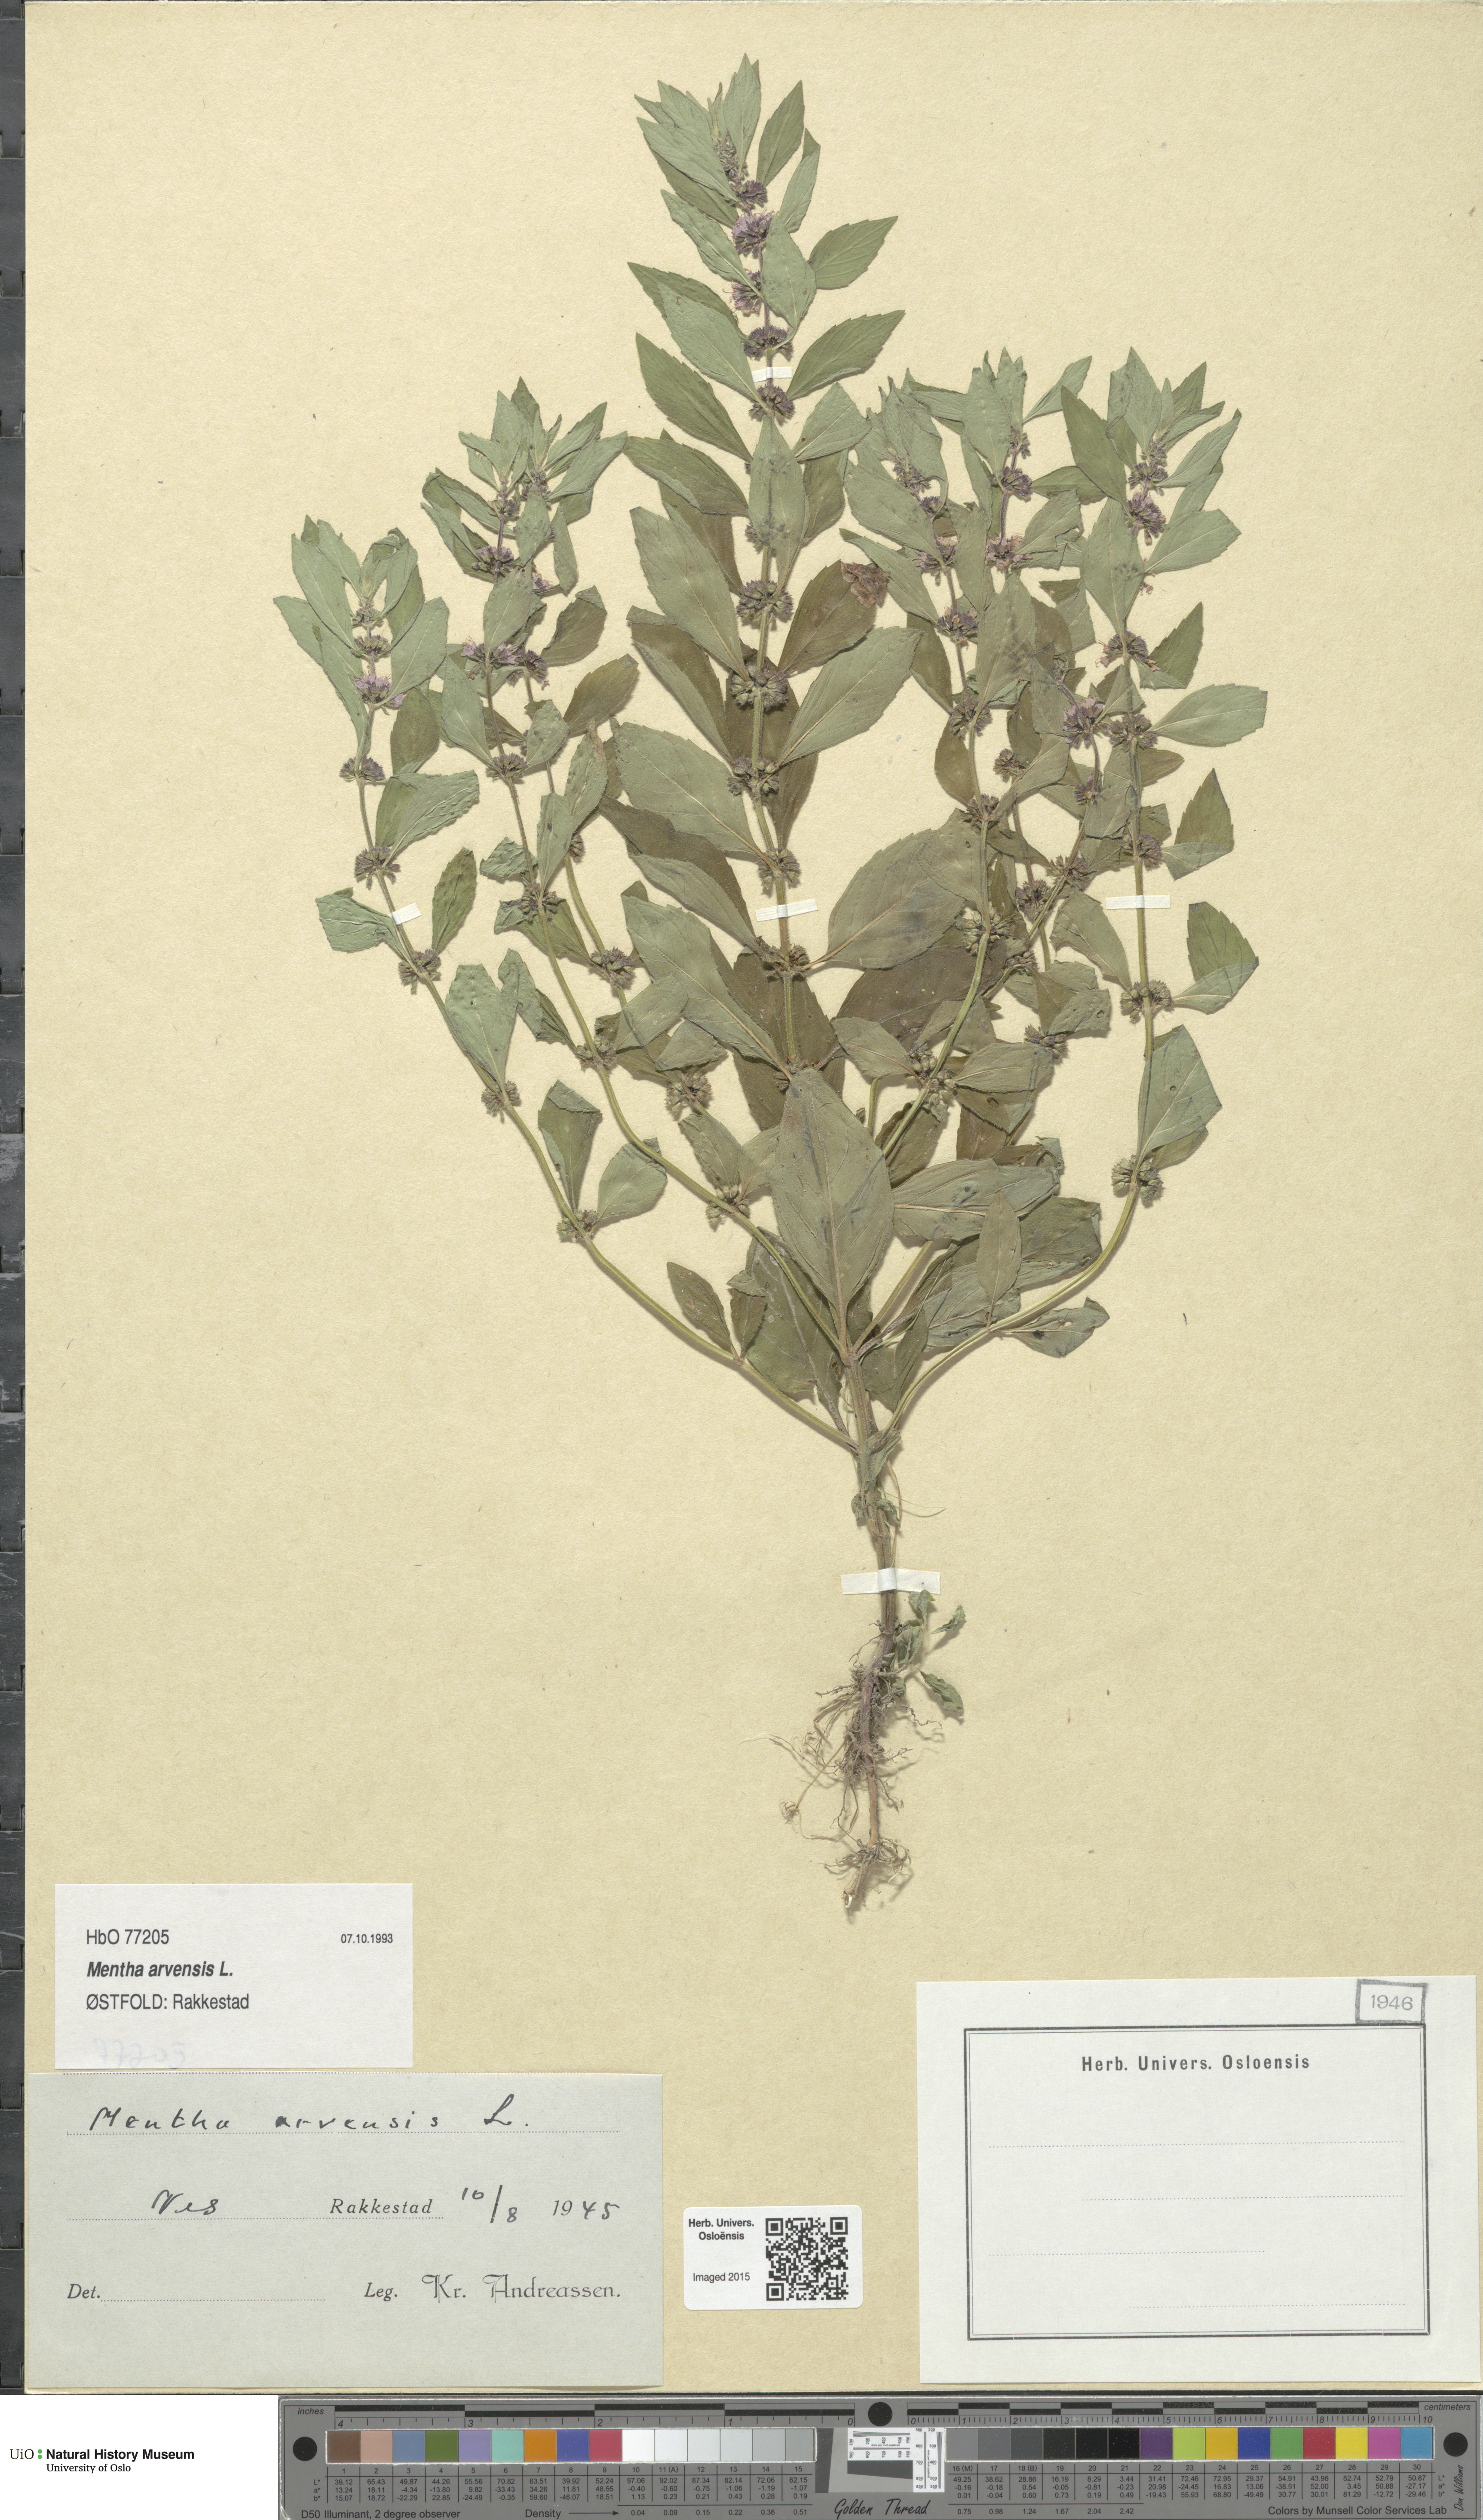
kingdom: Plantae
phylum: Tracheophyta
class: Magnoliopsida
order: Lamiales
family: Lamiaceae
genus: Mentha
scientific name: Mentha arvensis
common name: Corn mint
